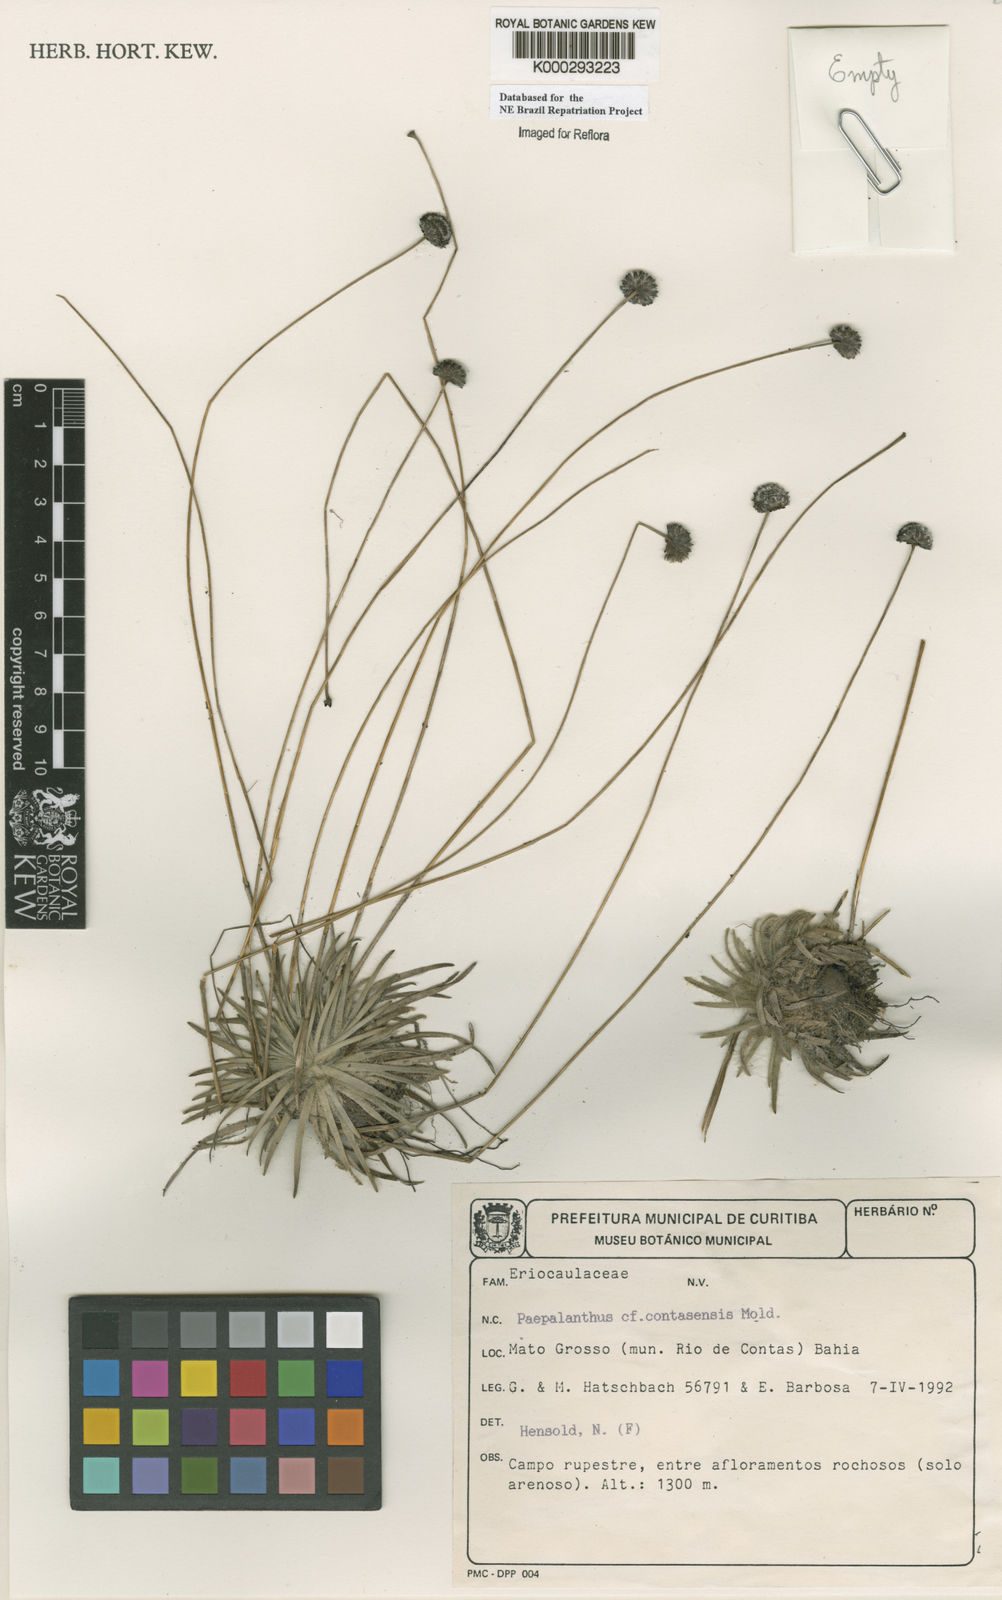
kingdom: Plantae
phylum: Tracheophyta
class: Liliopsida
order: Poales
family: Eriocaulaceae
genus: Paepalanthus
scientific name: Paepalanthus contasensis
